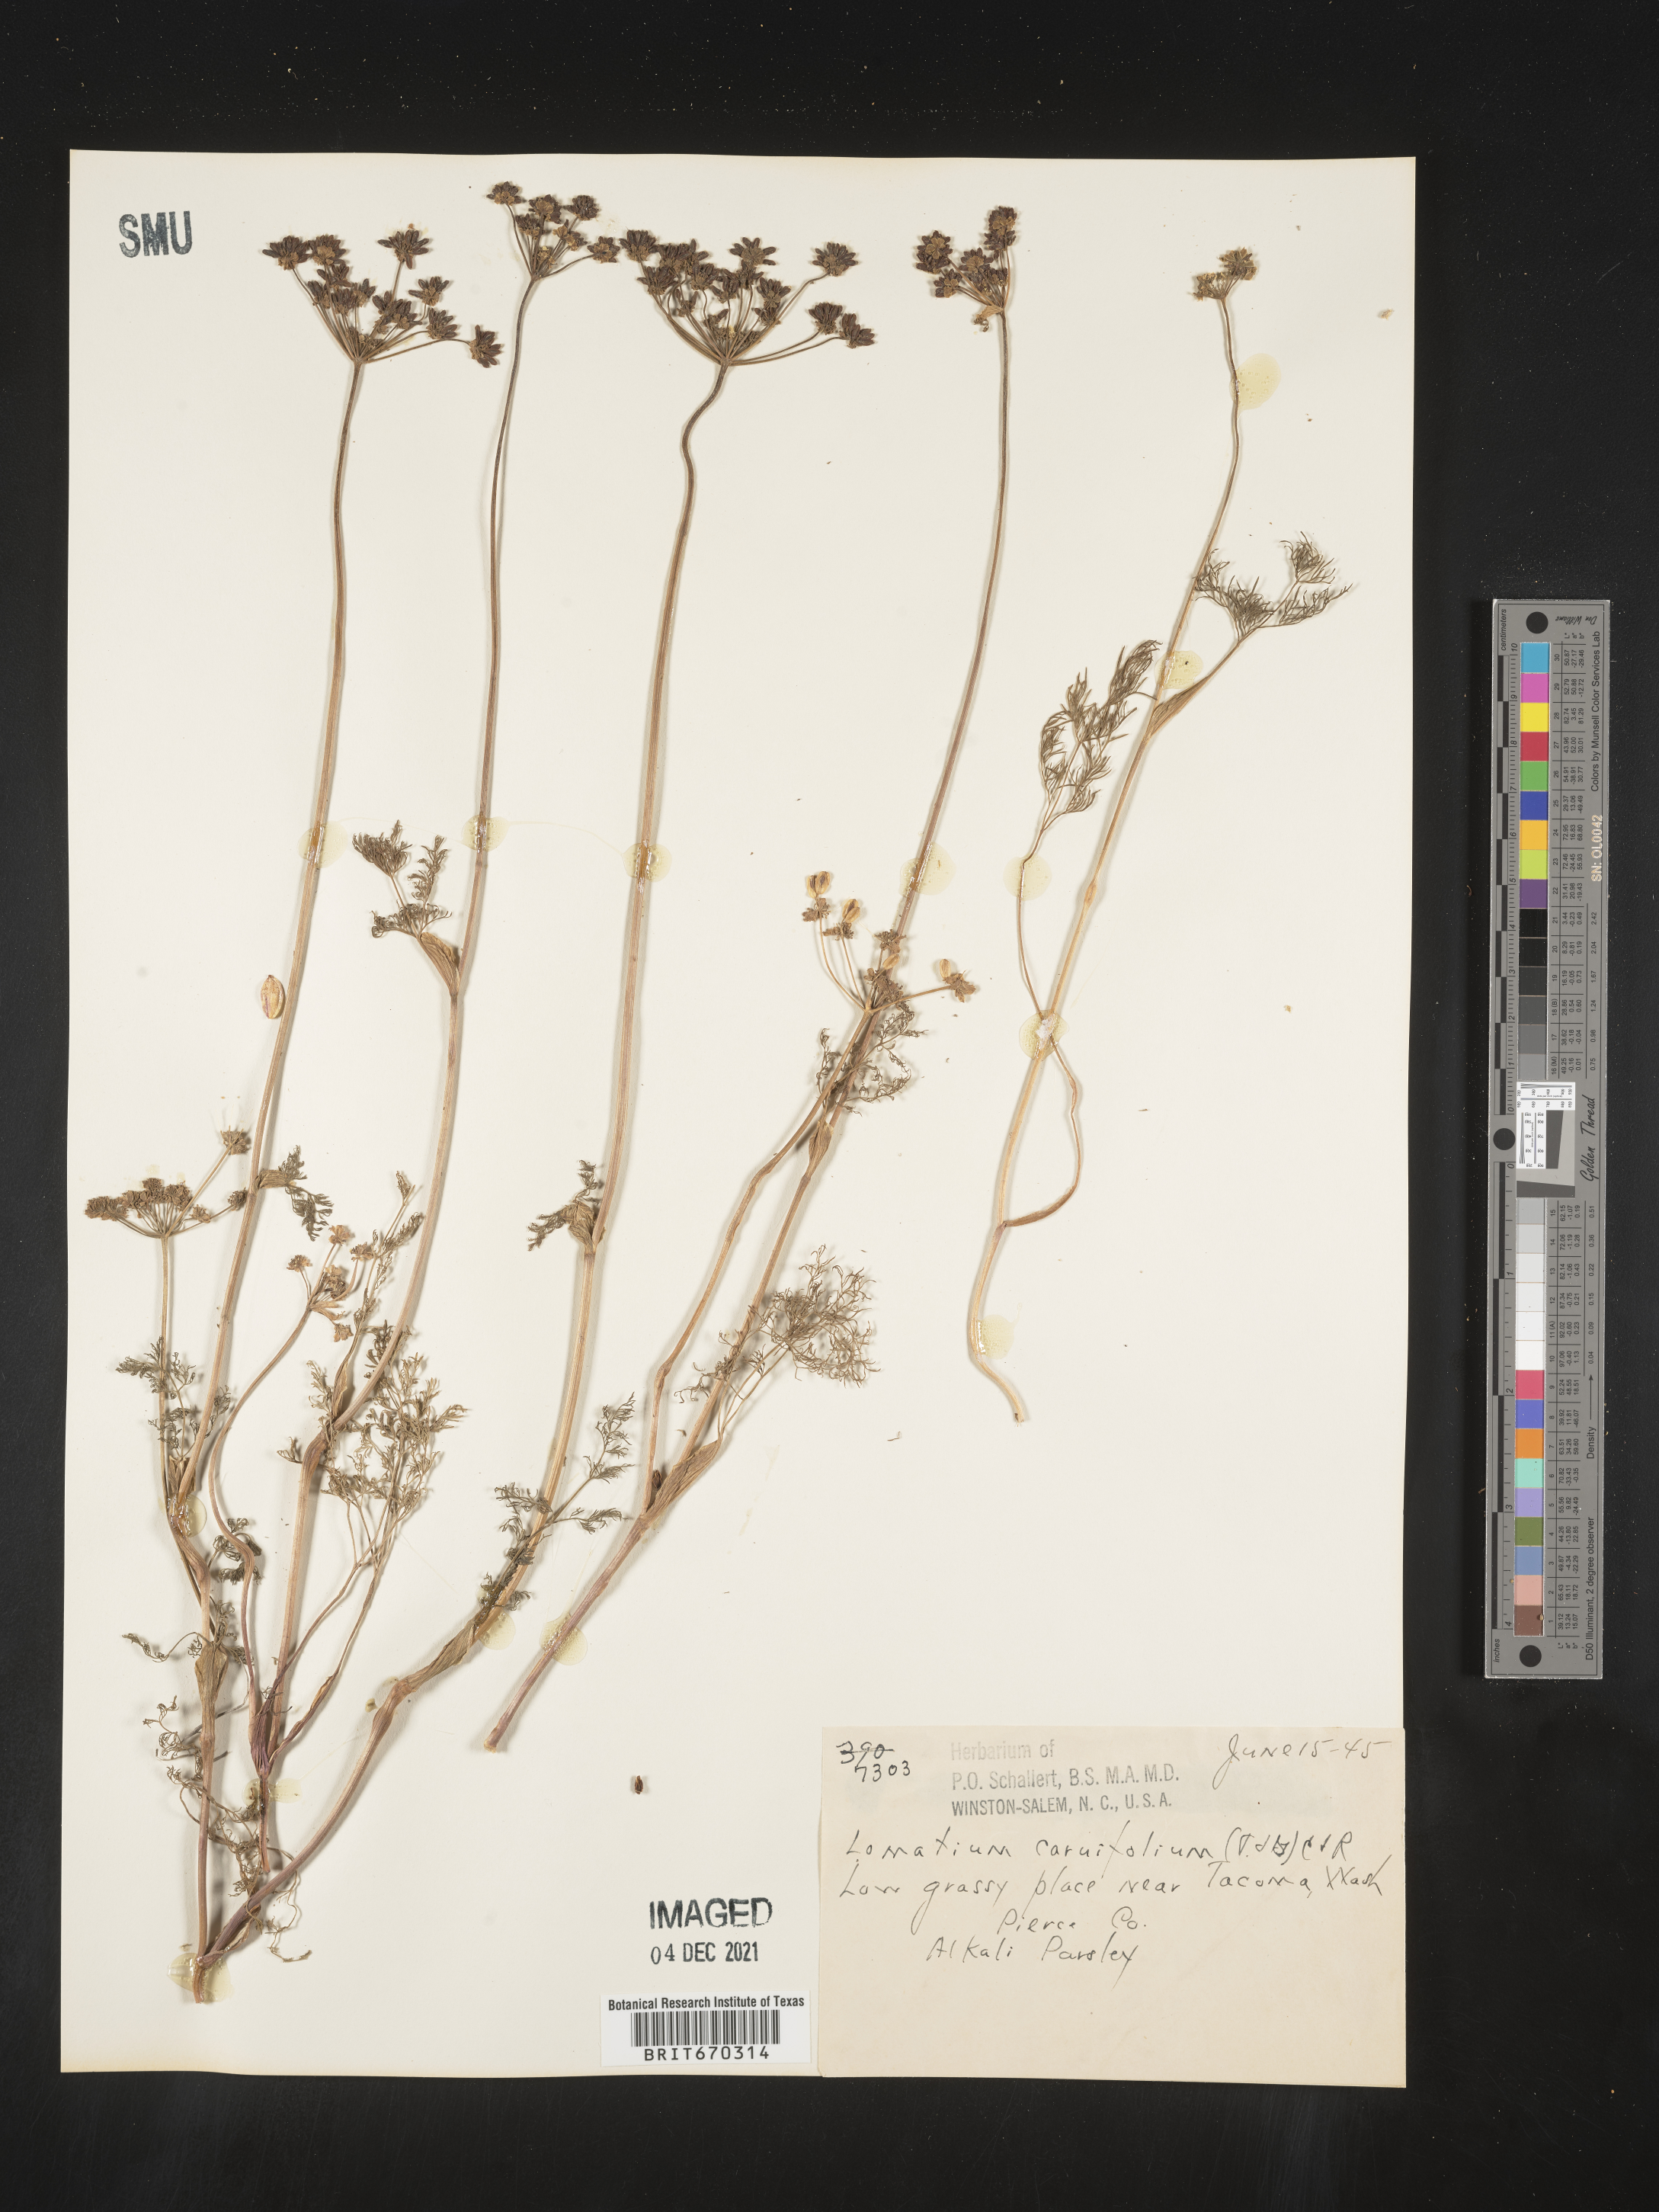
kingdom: Plantae
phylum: Tracheophyta
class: Magnoliopsida
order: Apiales
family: Apiaceae
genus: Lomatium
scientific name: Lomatium caruifolium
